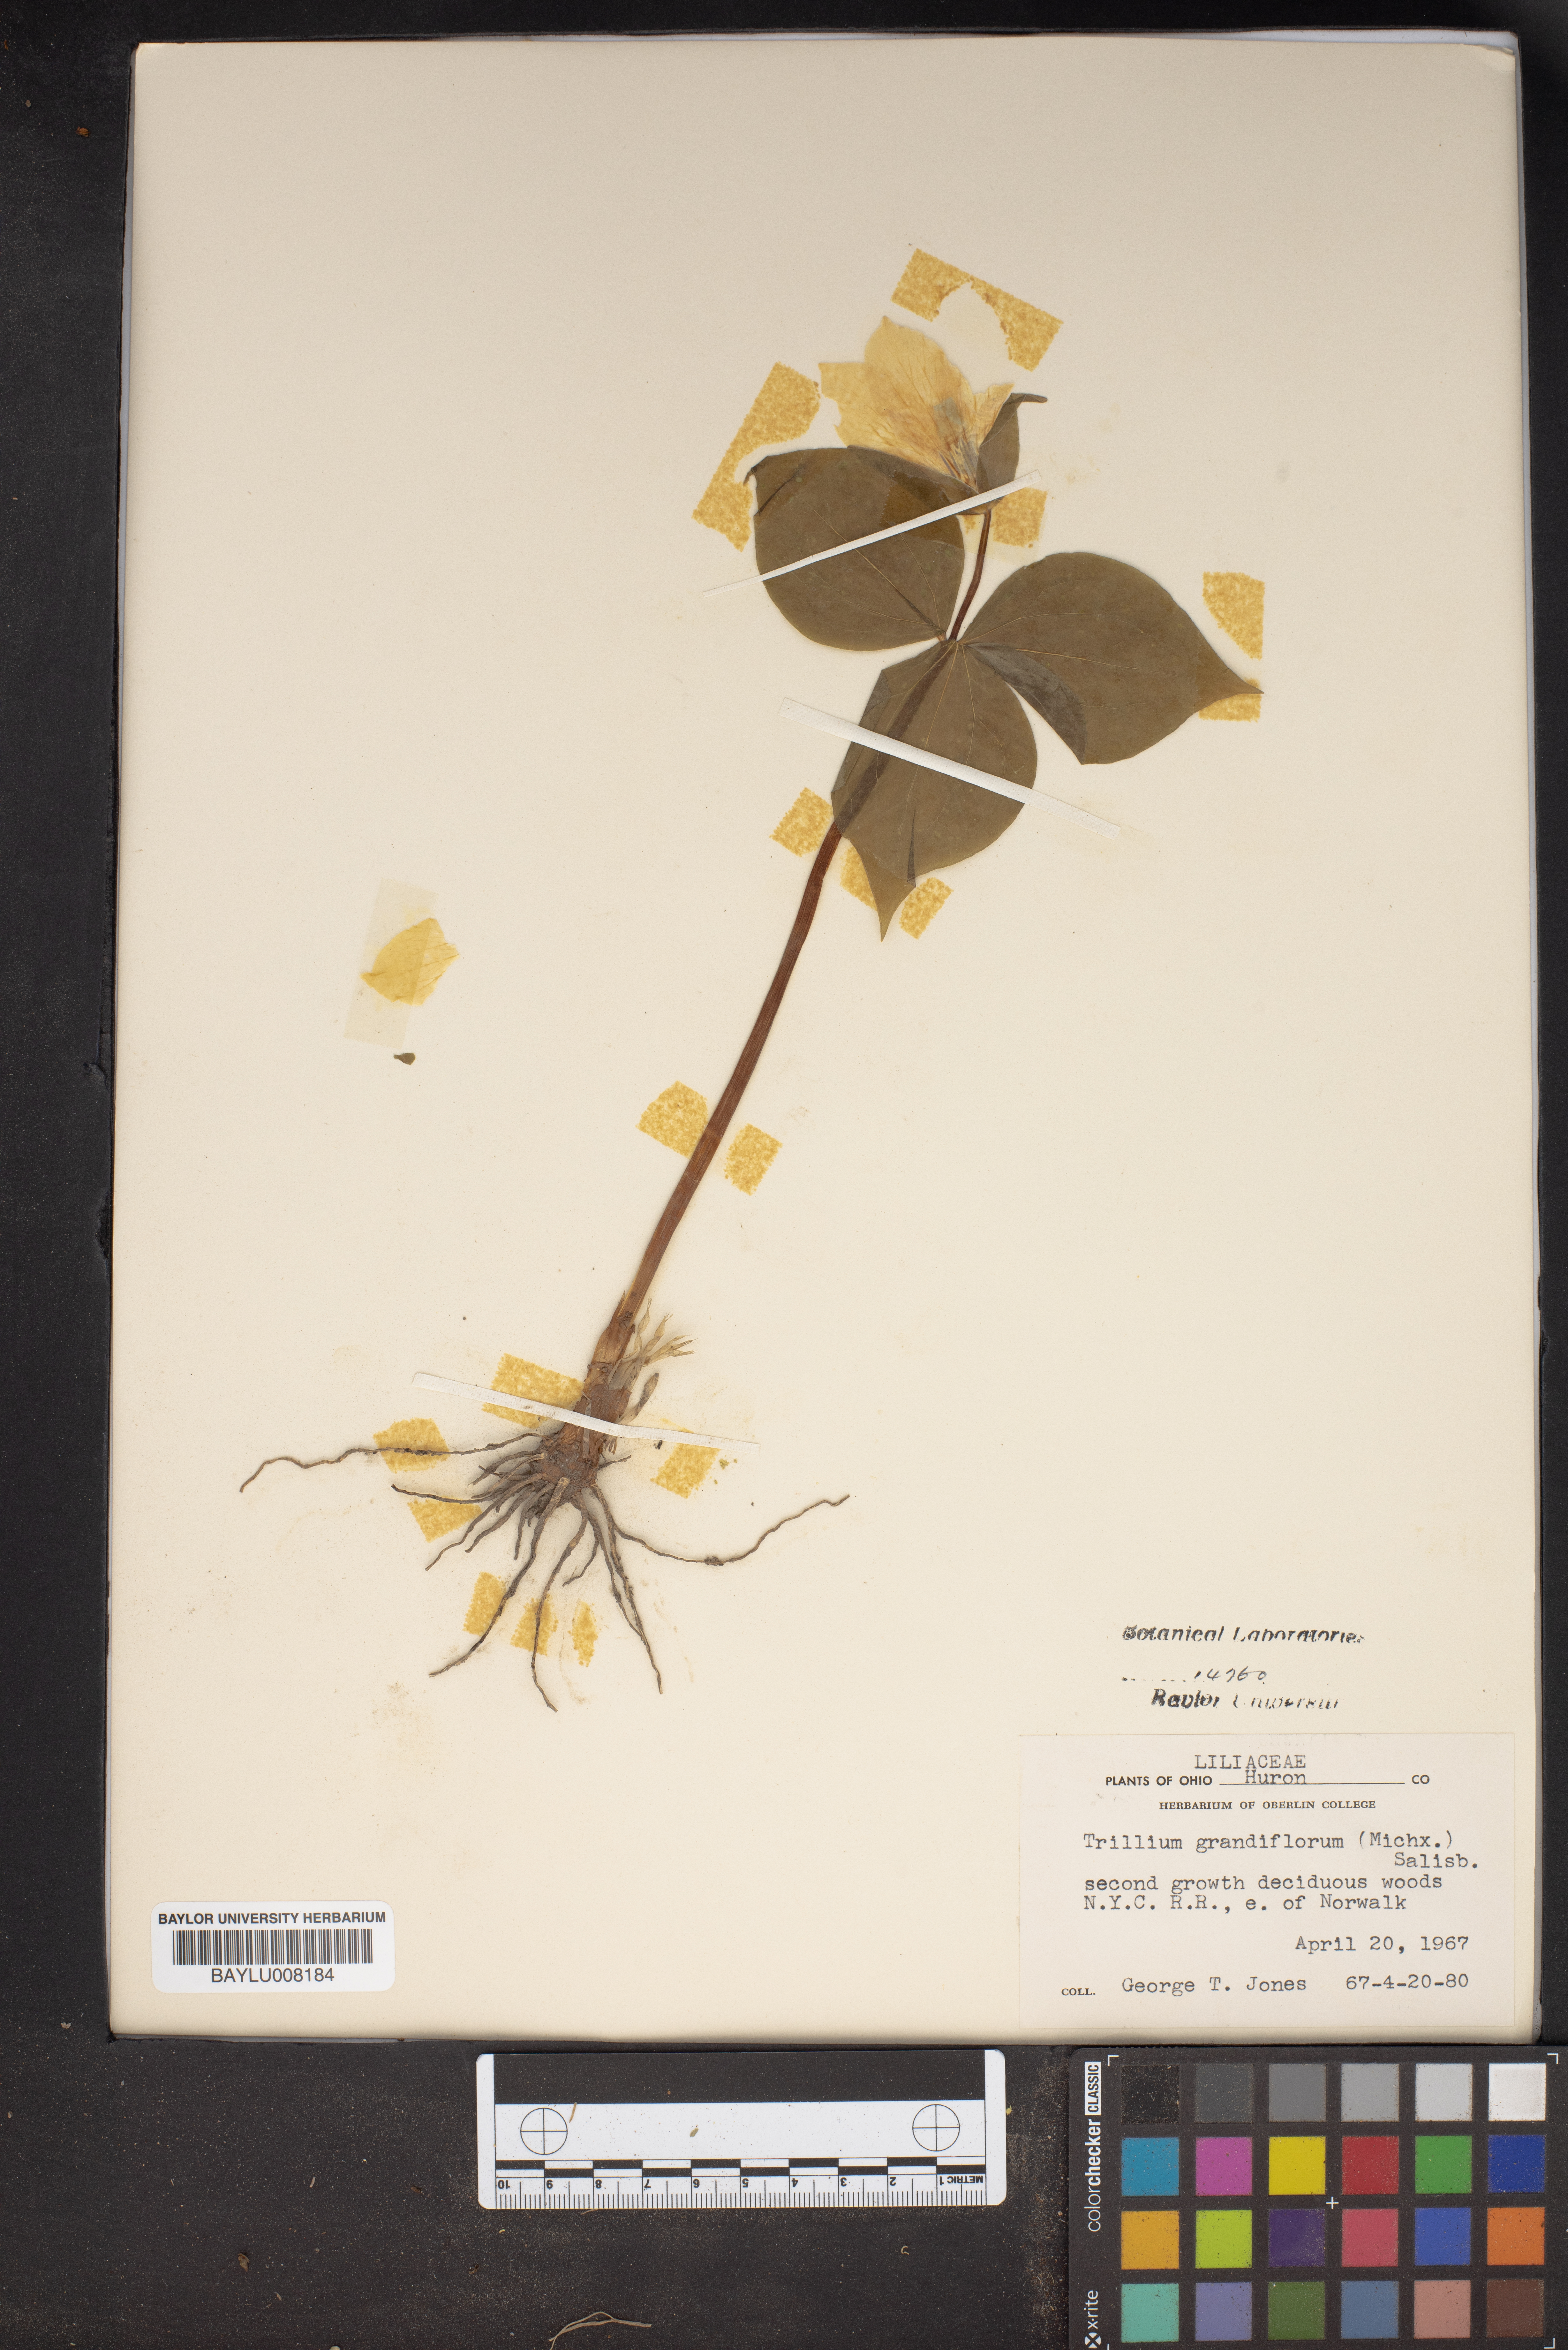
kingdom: Plantae
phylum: Tracheophyta
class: Liliopsida
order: Liliales
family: Melanthiaceae
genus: Trillium
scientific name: Trillium grandiflorum
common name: Great white trillium
